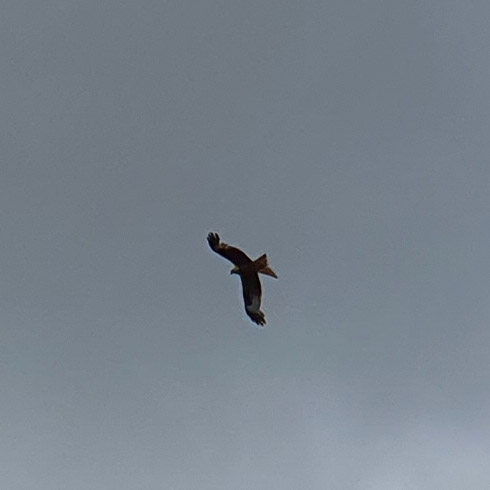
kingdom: Animalia
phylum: Chordata
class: Aves
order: Accipitriformes
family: Accipitridae
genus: Milvus
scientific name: Milvus milvus
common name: Rød glente
